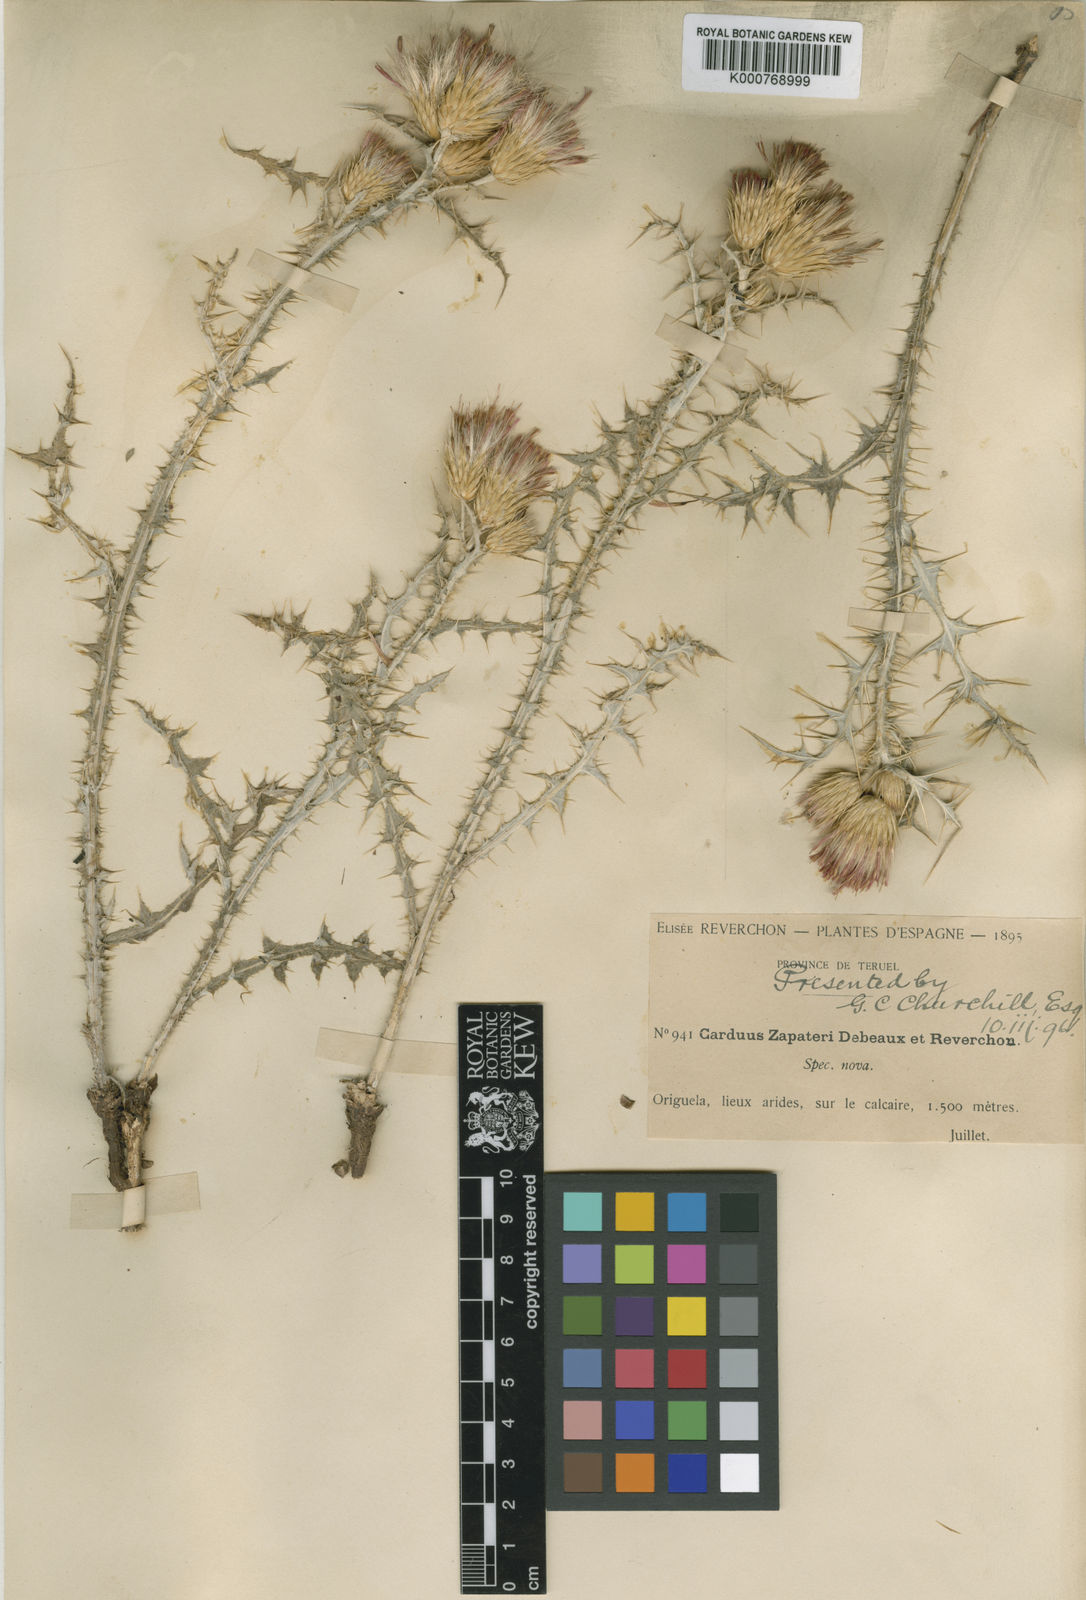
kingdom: Plantae
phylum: Tracheophyta
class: Magnoliopsida
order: Asterales
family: Asteraceae
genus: Carduus
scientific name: Carduus carpetanus
